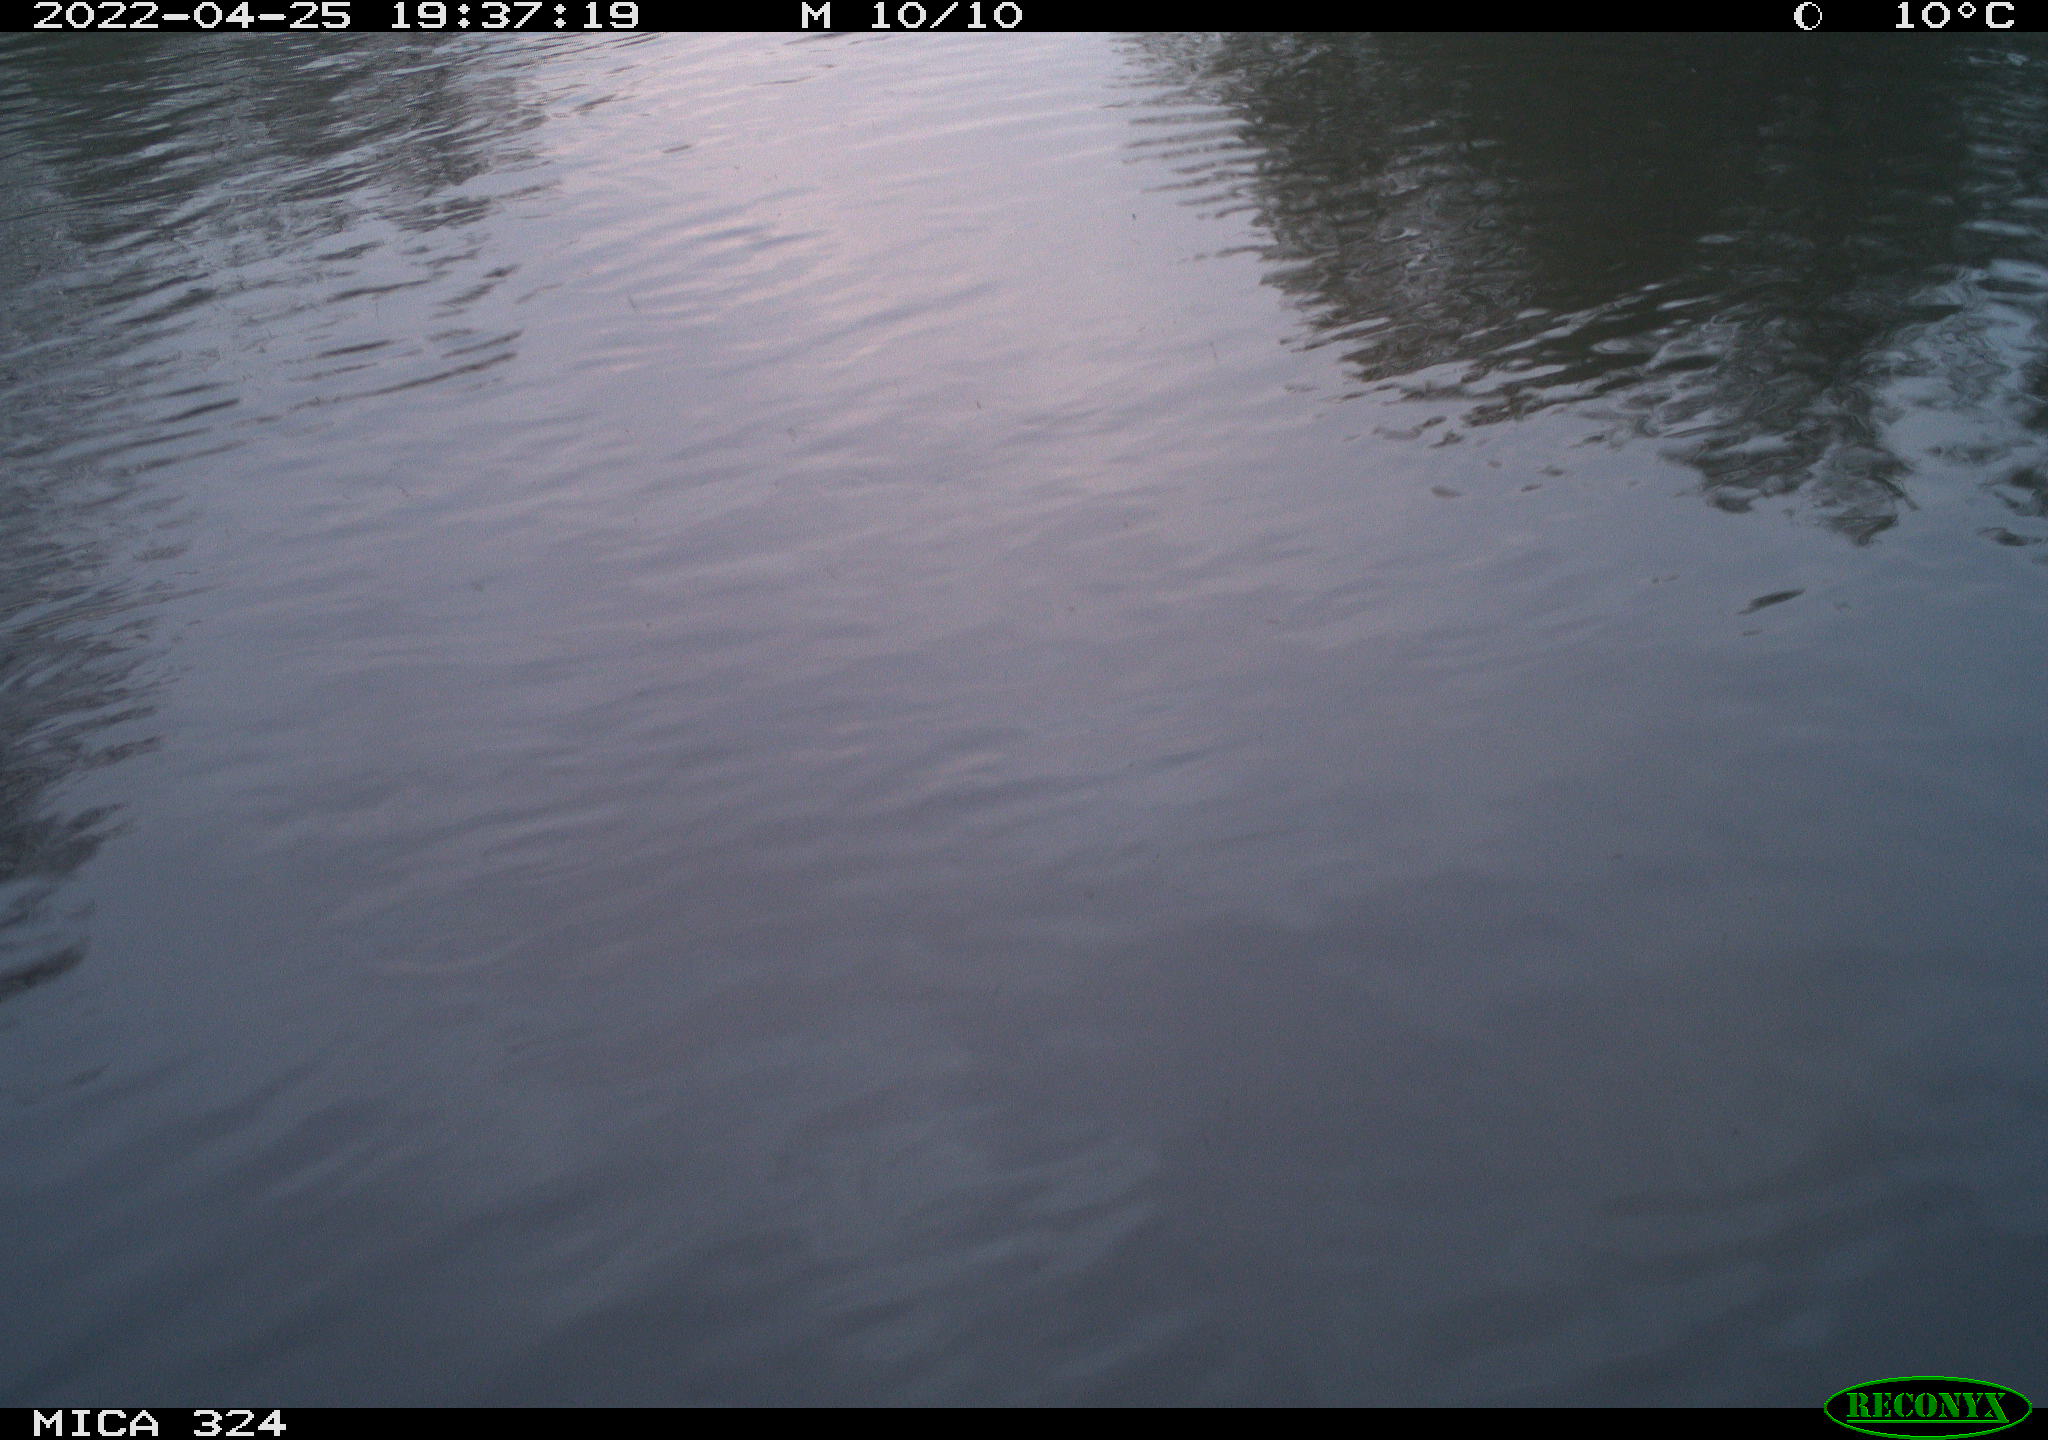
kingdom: Animalia
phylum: Chordata
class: Mammalia
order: Rodentia
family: Cricetidae
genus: Ondatra
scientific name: Ondatra zibethicus
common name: Muskrat
